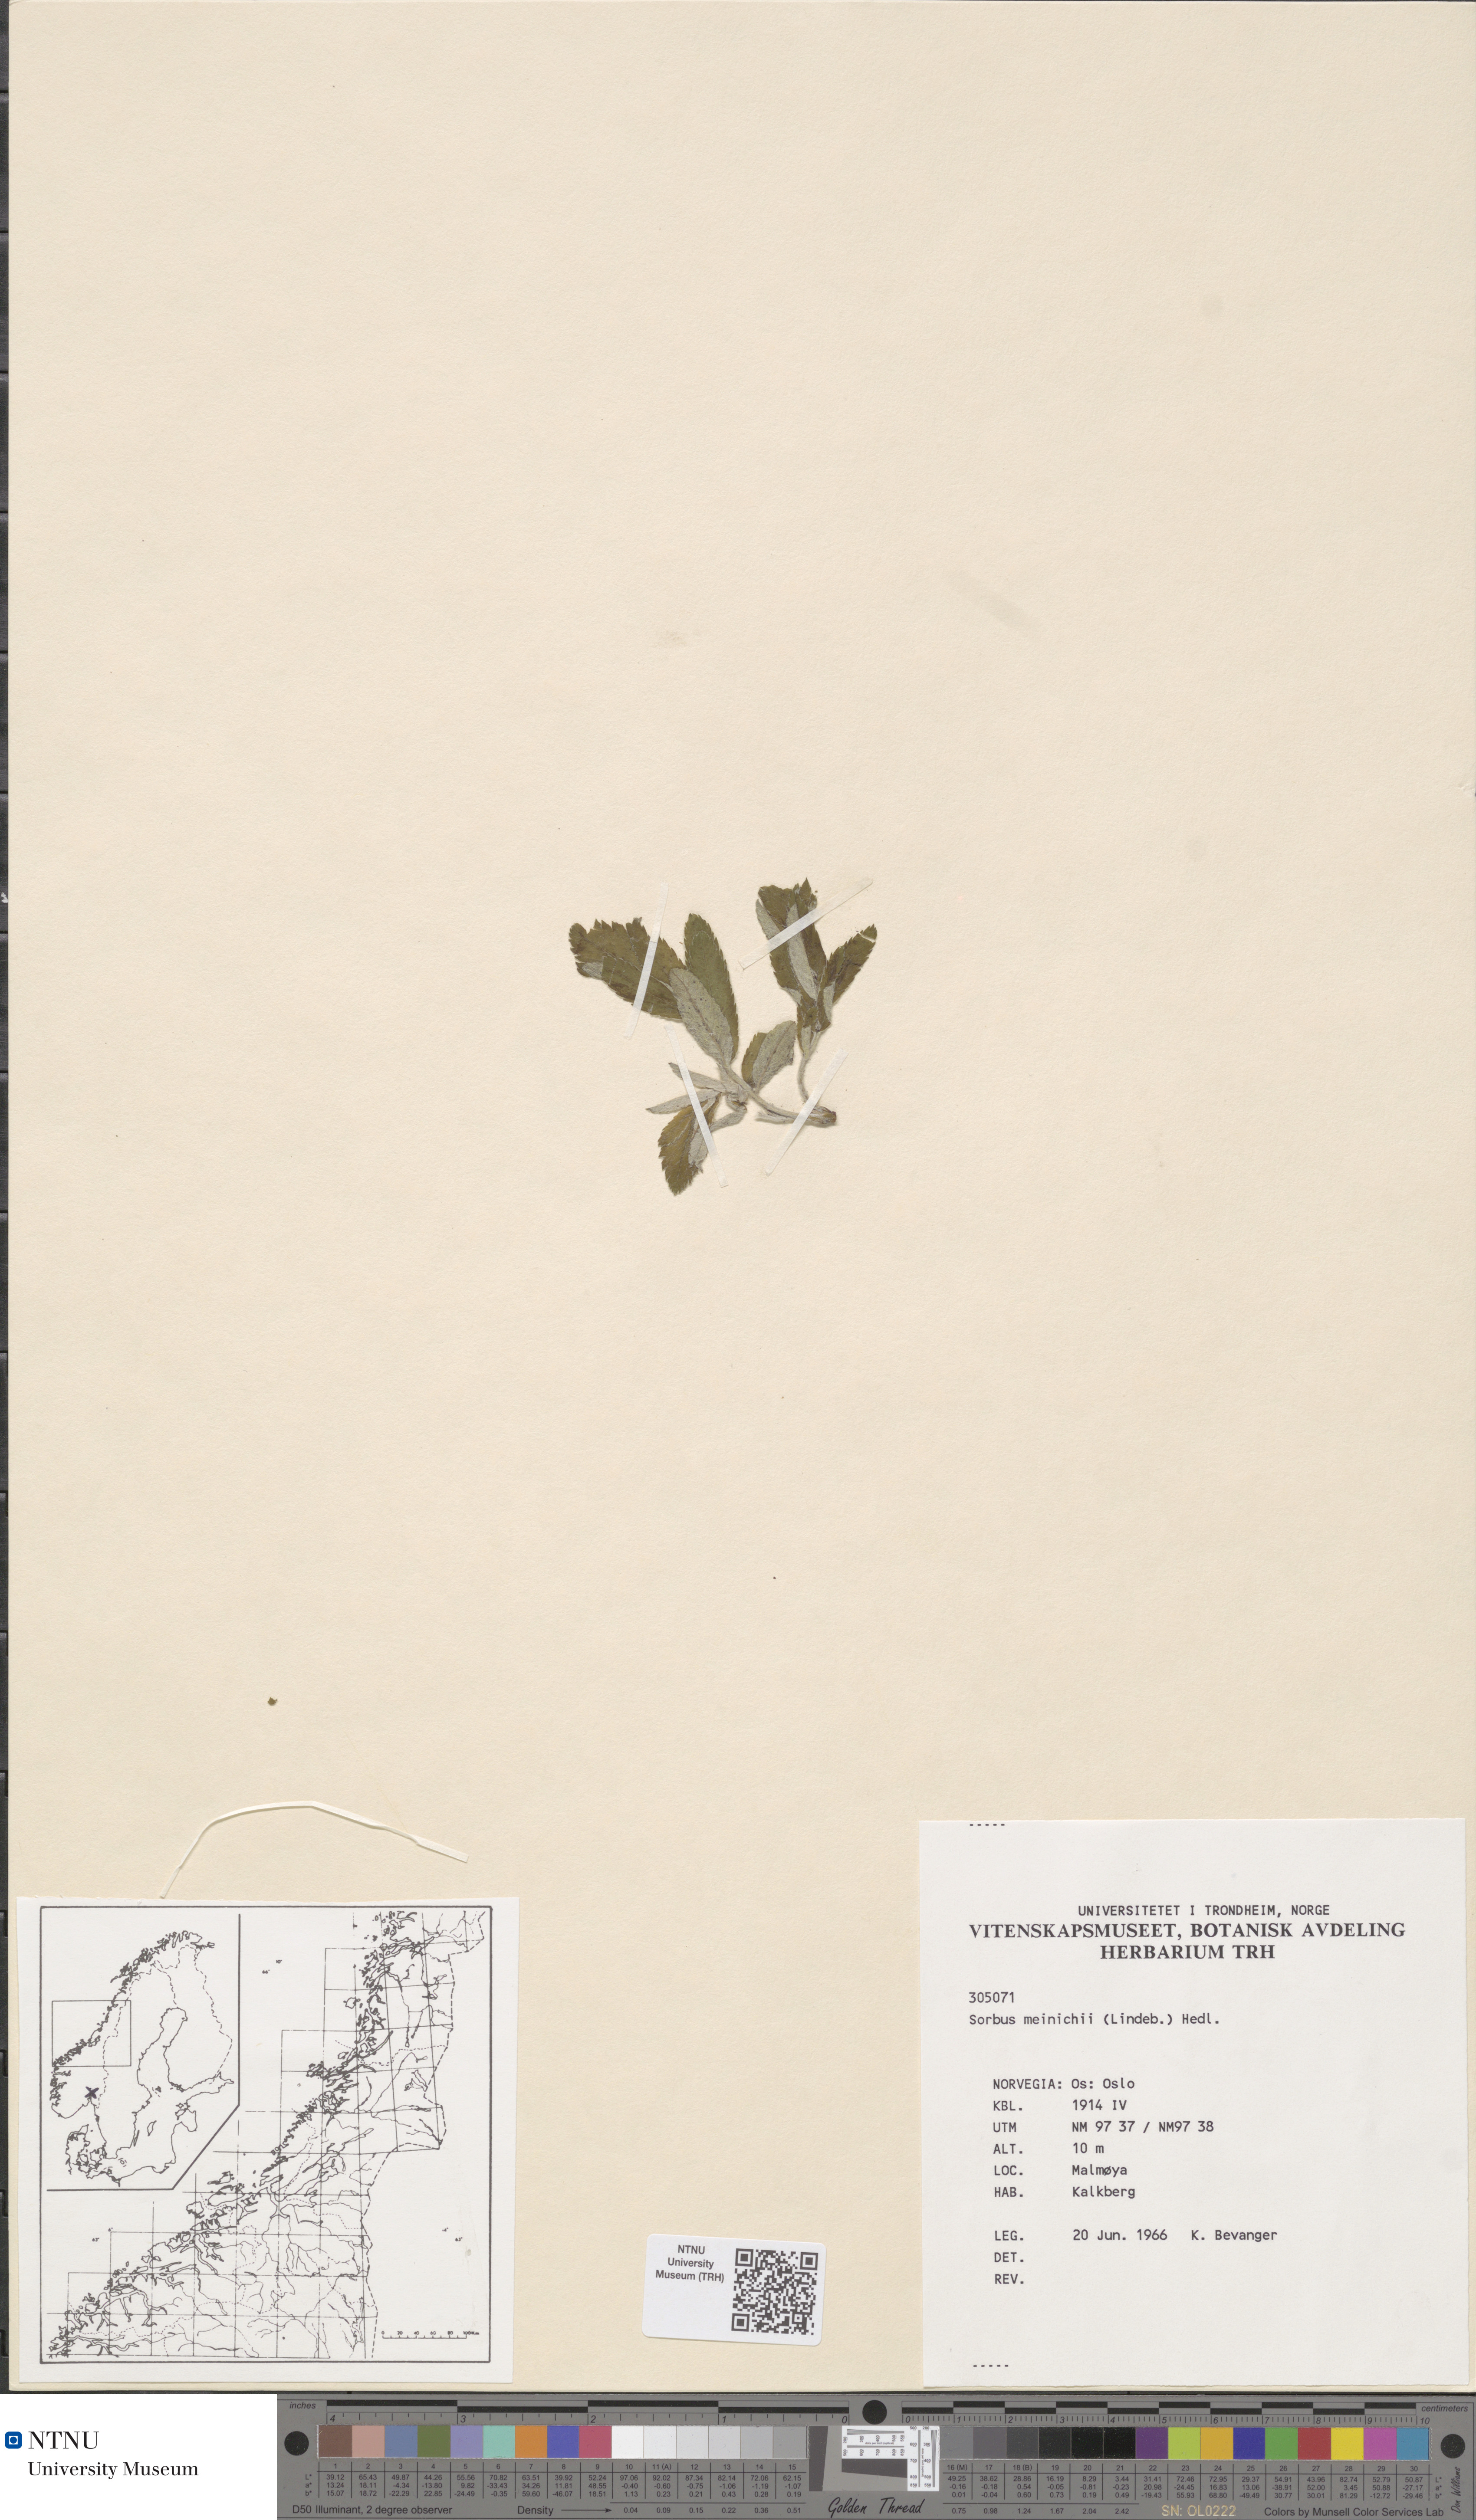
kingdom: Plantae
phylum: Tracheophyta
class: Magnoliopsida
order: Rosales
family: Rosaceae
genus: Hedlundia
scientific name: Hedlundia meinichii
